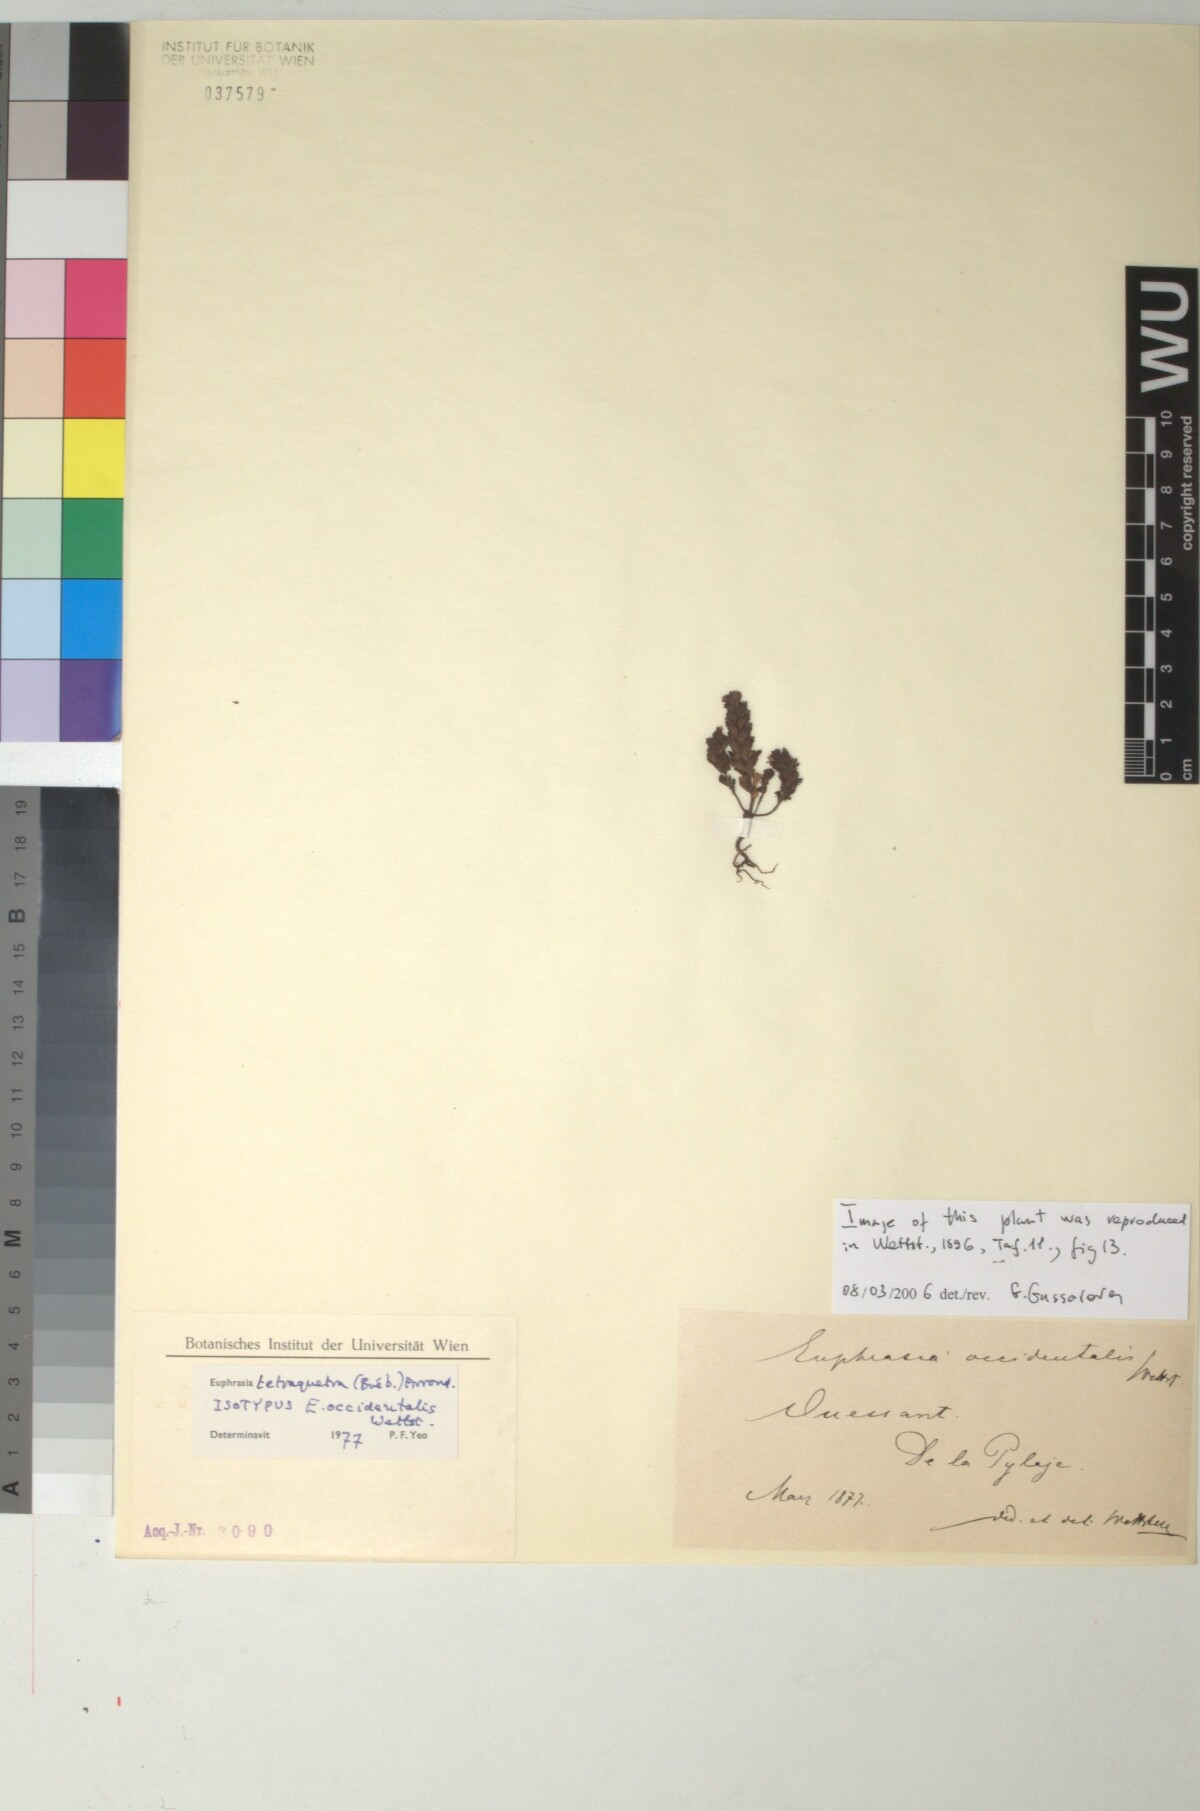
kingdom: Plantae
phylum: Tracheophyta
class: Magnoliopsida
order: Lamiales
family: Orobanchaceae
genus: Euphrasia
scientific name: Euphrasia occidentalis
